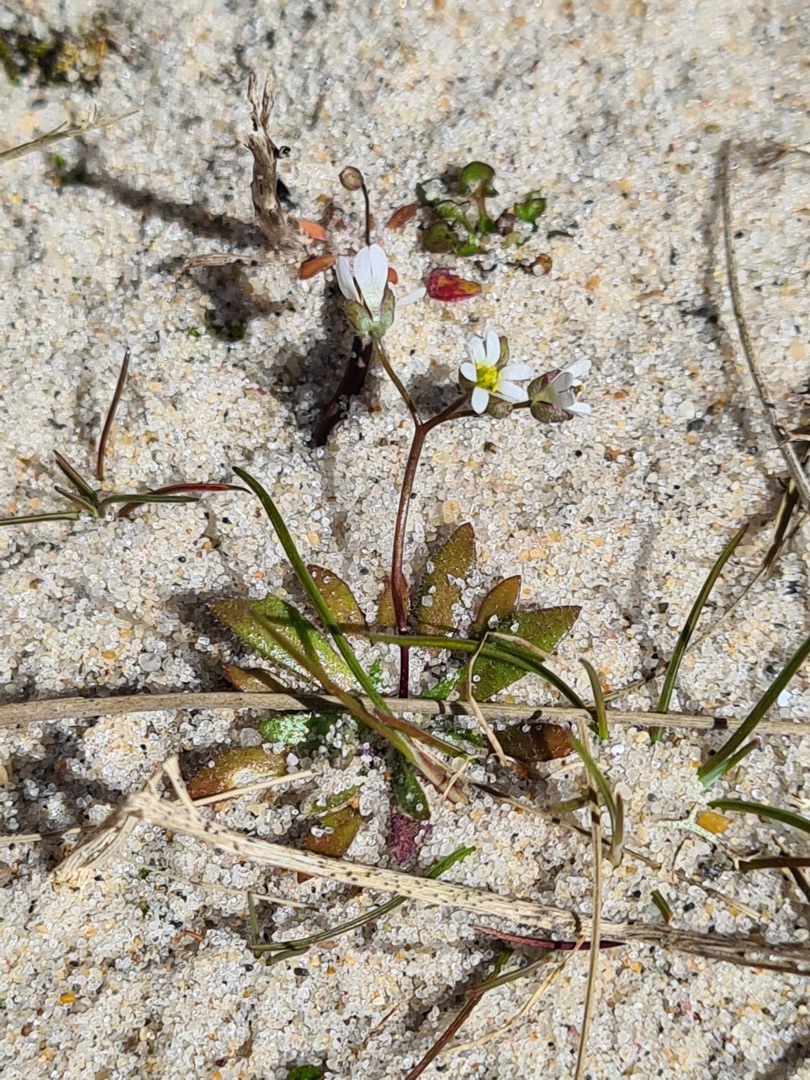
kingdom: Plantae
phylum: Tracheophyta
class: Magnoliopsida
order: Brassicales
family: Brassicaceae
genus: Draba
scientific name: Draba verna
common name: Vår-gæslingeblomst
